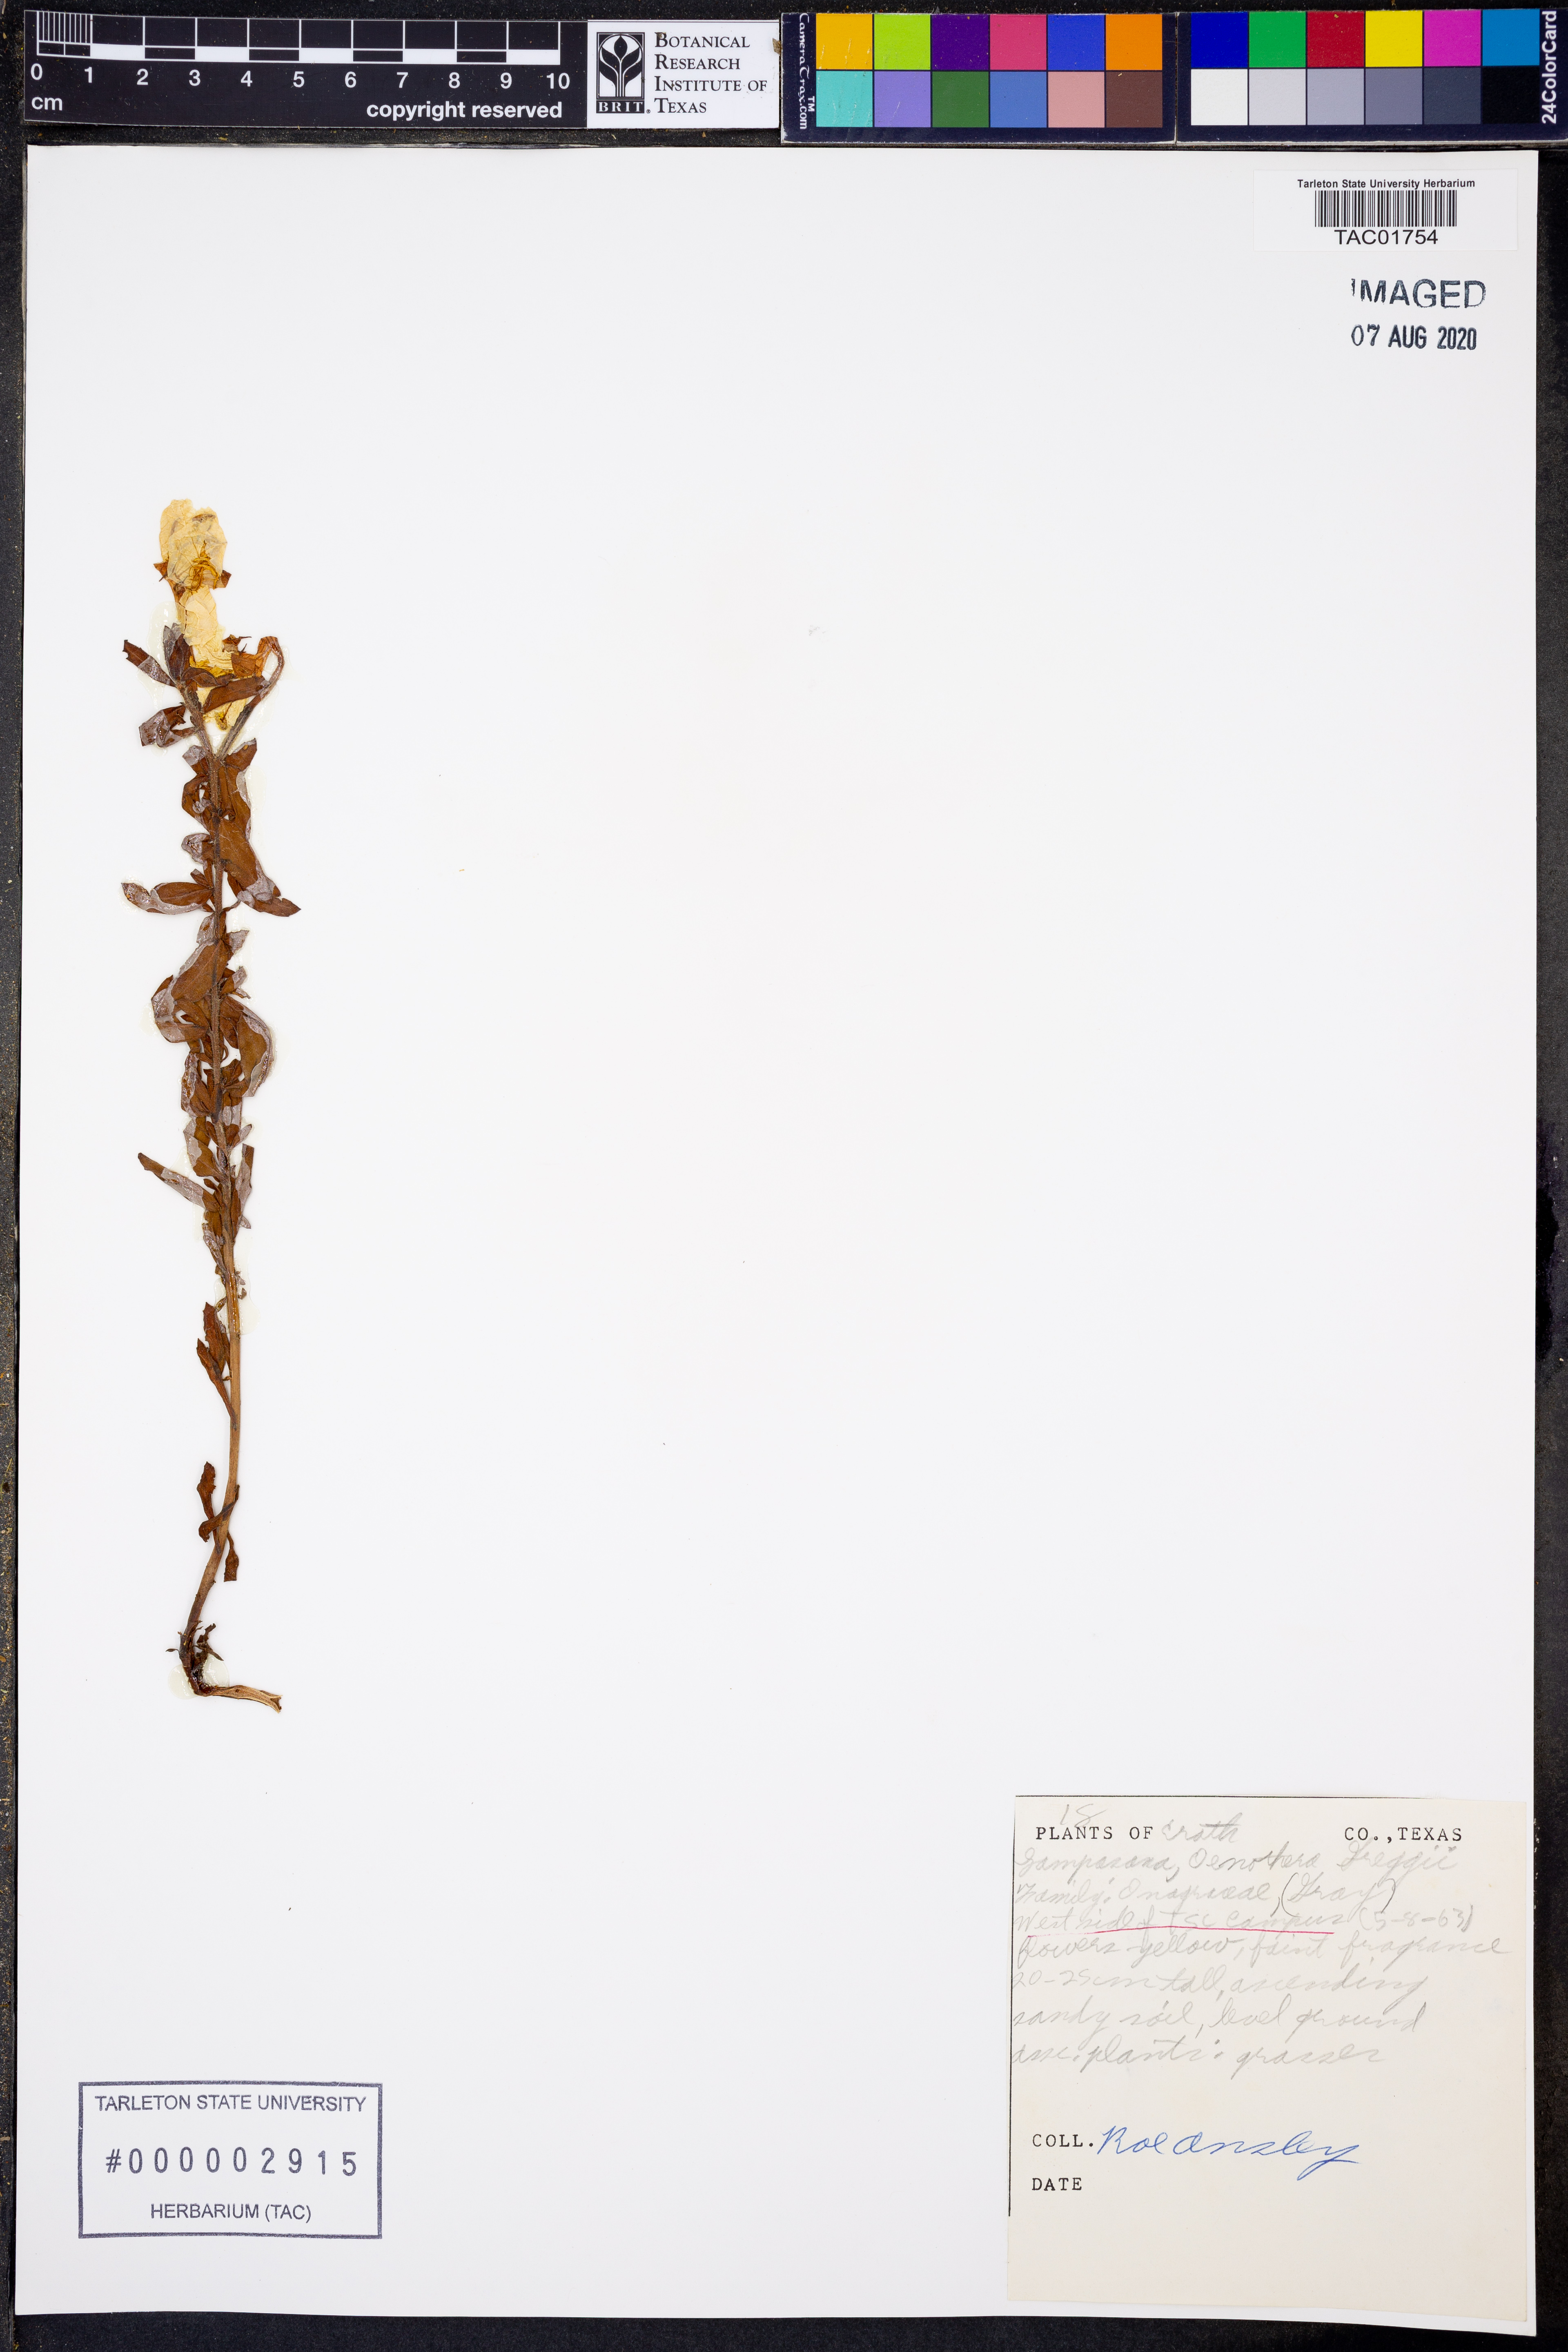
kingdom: Plantae
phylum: Tracheophyta
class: Magnoliopsida
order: Myrtales
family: Onagraceae
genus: Oenothera
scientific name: Oenothera hartwegii
